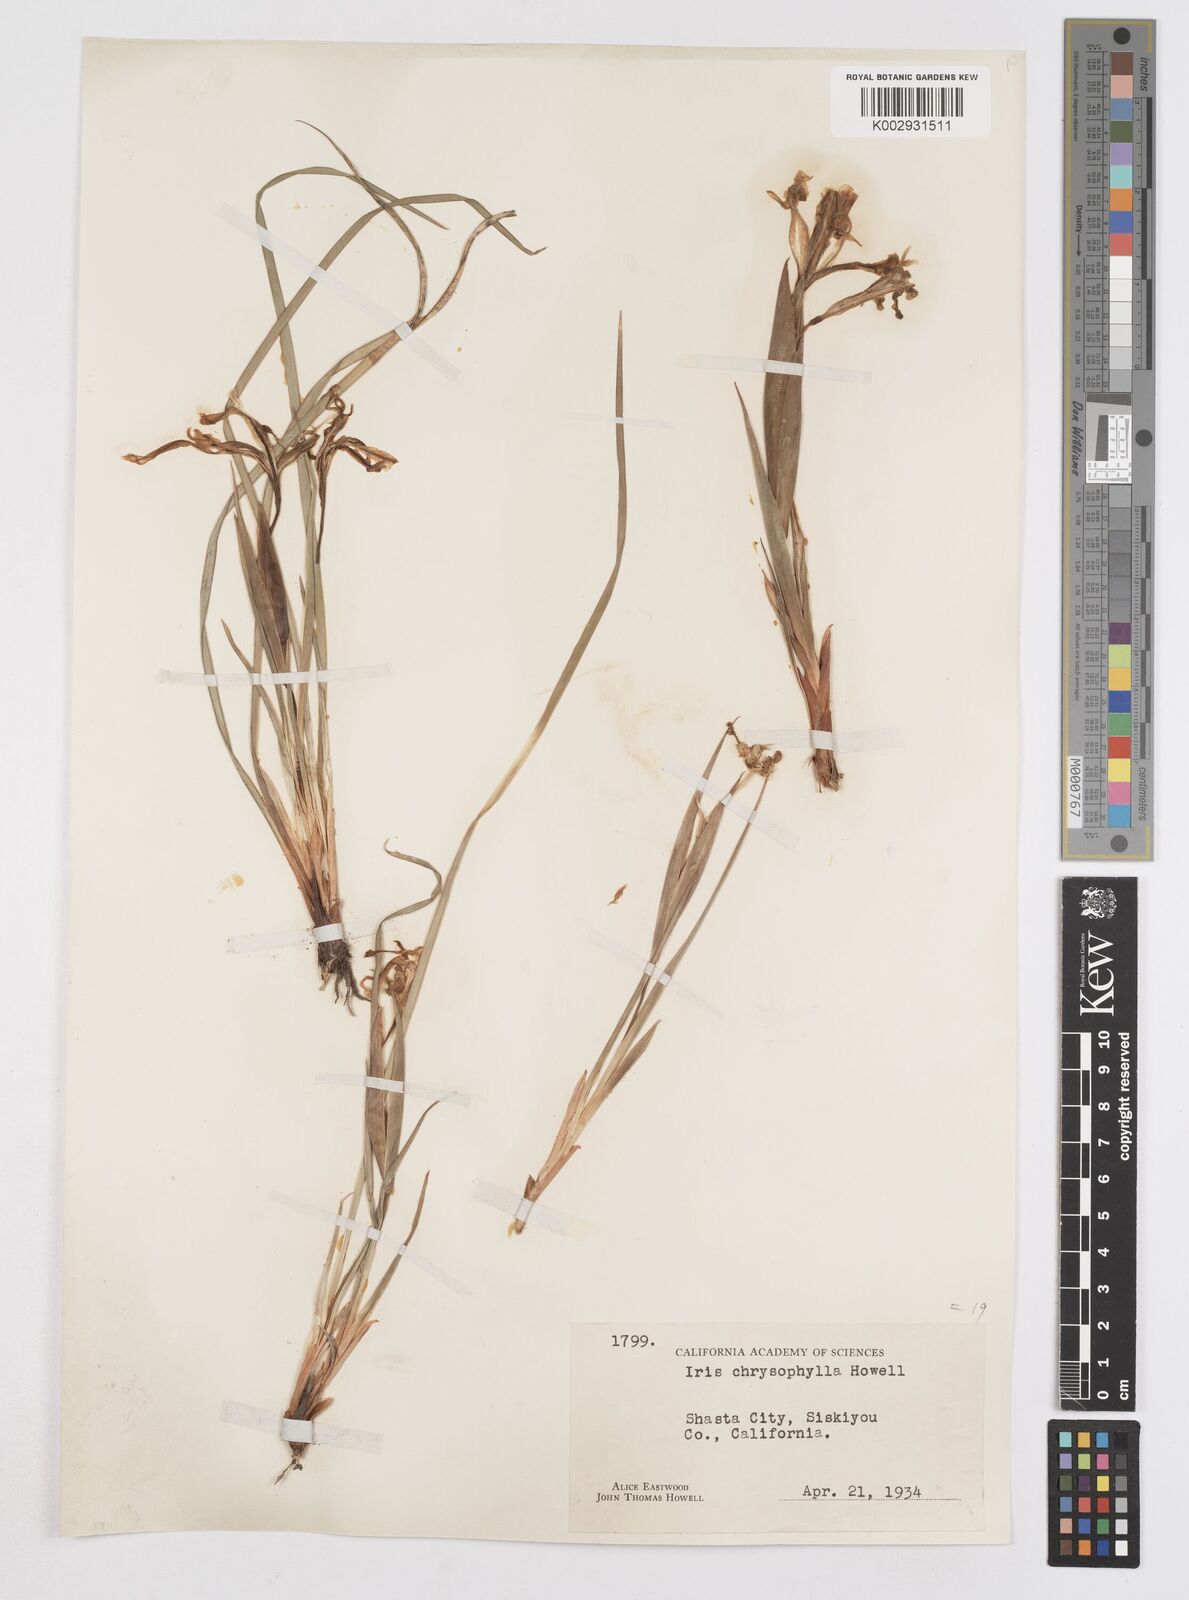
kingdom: Plantae
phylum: Tracheophyta
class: Liliopsida
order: Asparagales
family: Iridaceae
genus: Iris
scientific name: Iris chrysophylla
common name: Yellow-leaf iris
